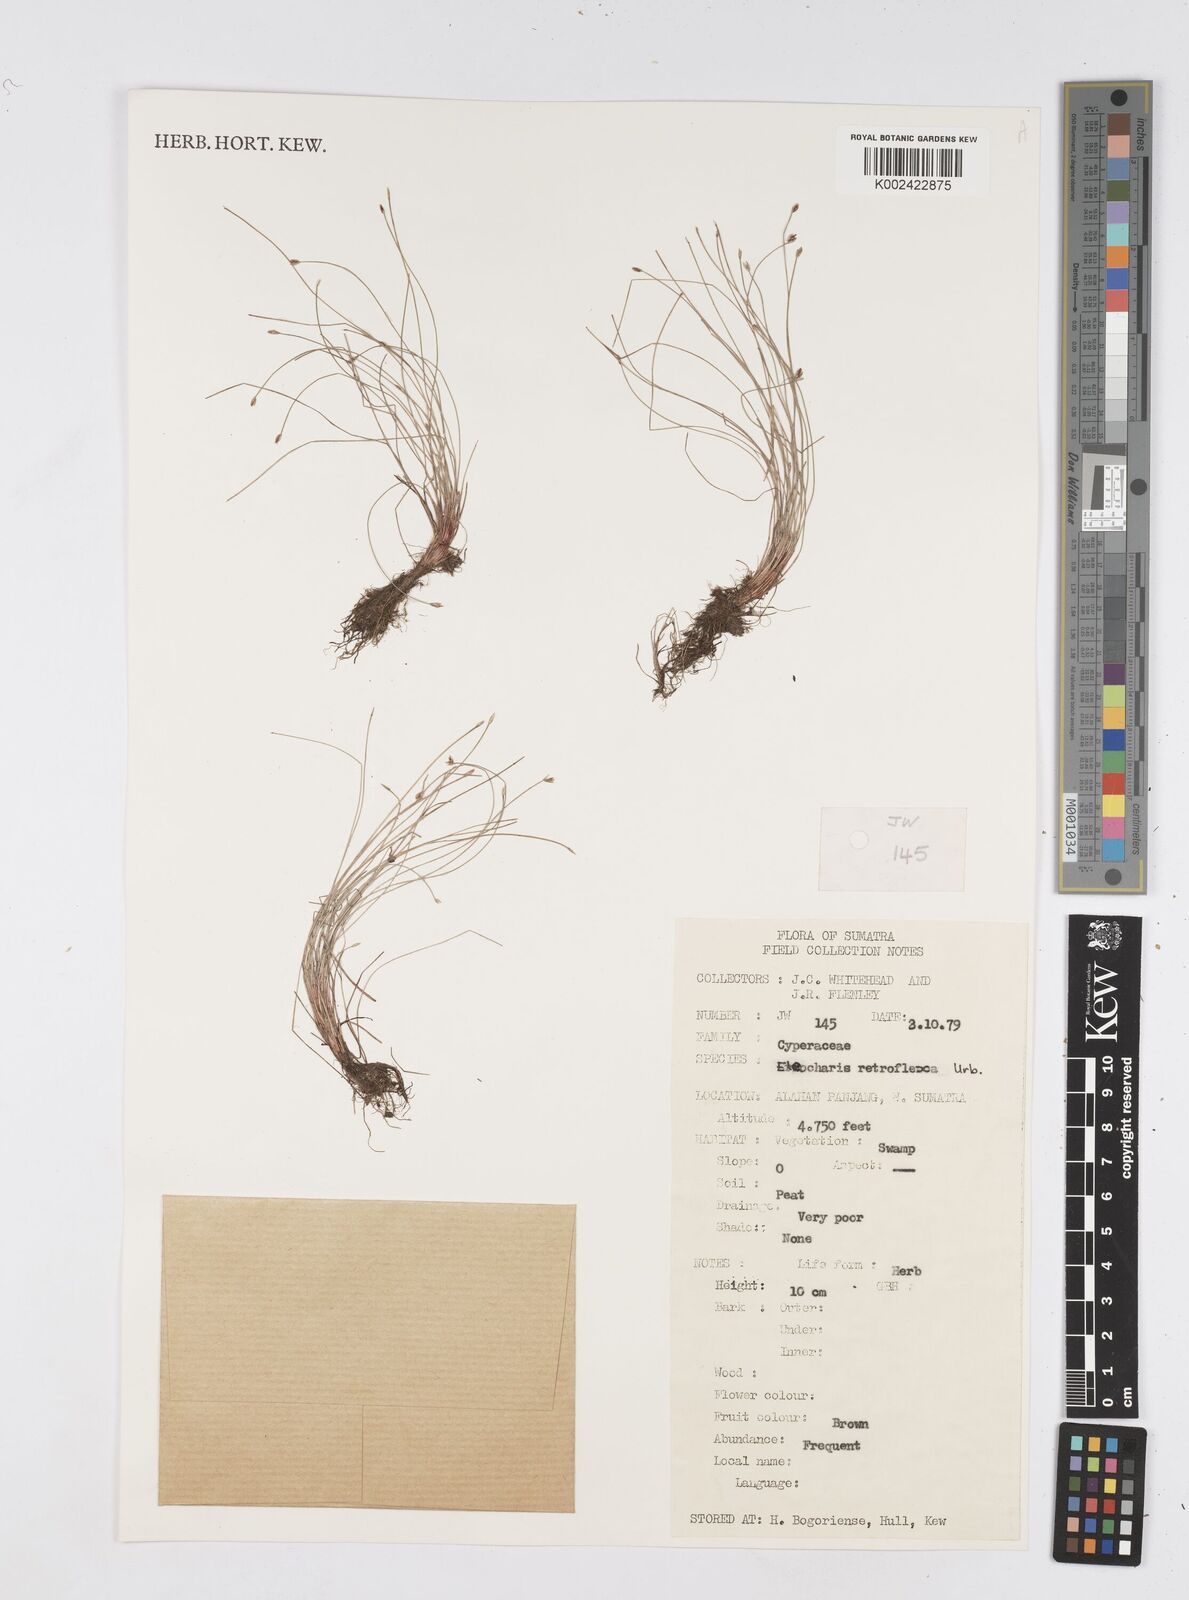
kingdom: Plantae
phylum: Tracheophyta
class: Liliopsida
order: Poales
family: Cyperaceae
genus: Eleocharis
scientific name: Eleocharis retroflexa
